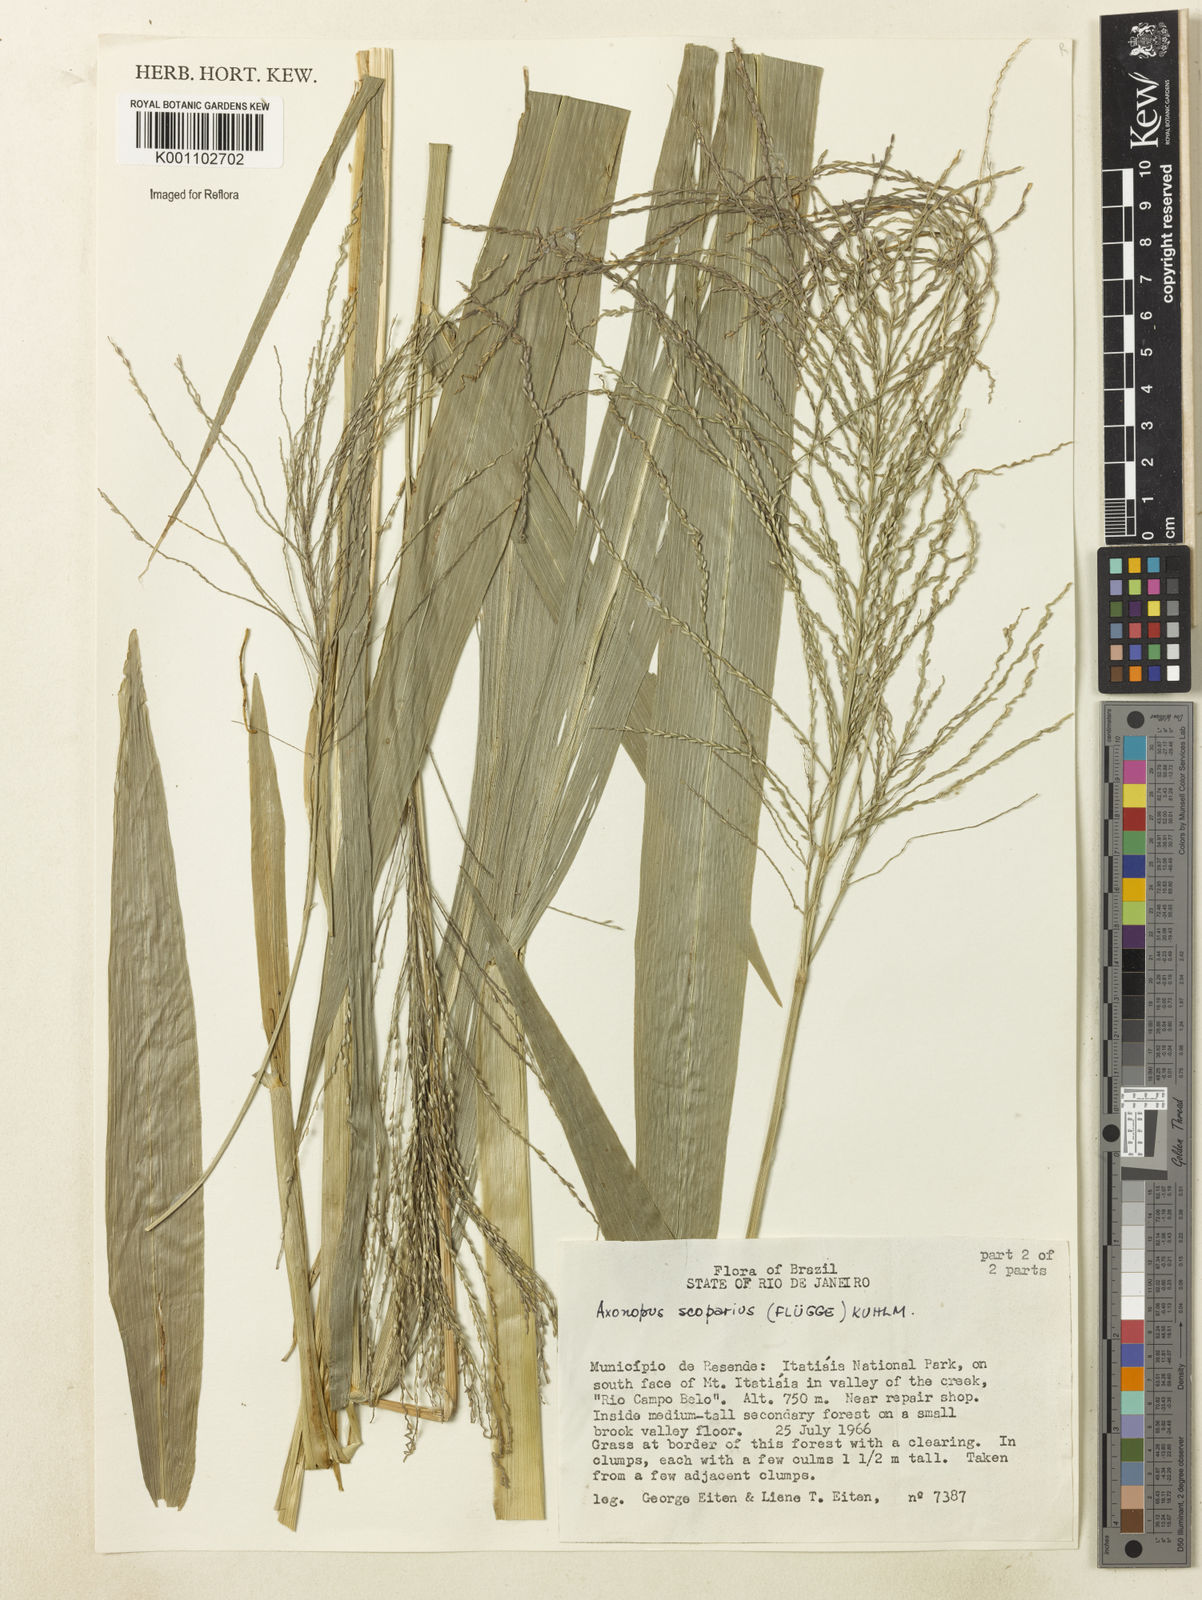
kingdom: Plantae
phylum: Tracheophyta
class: Liliopsida
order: Poales
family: Poaceae
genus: Axonopus
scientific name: Axonopus
